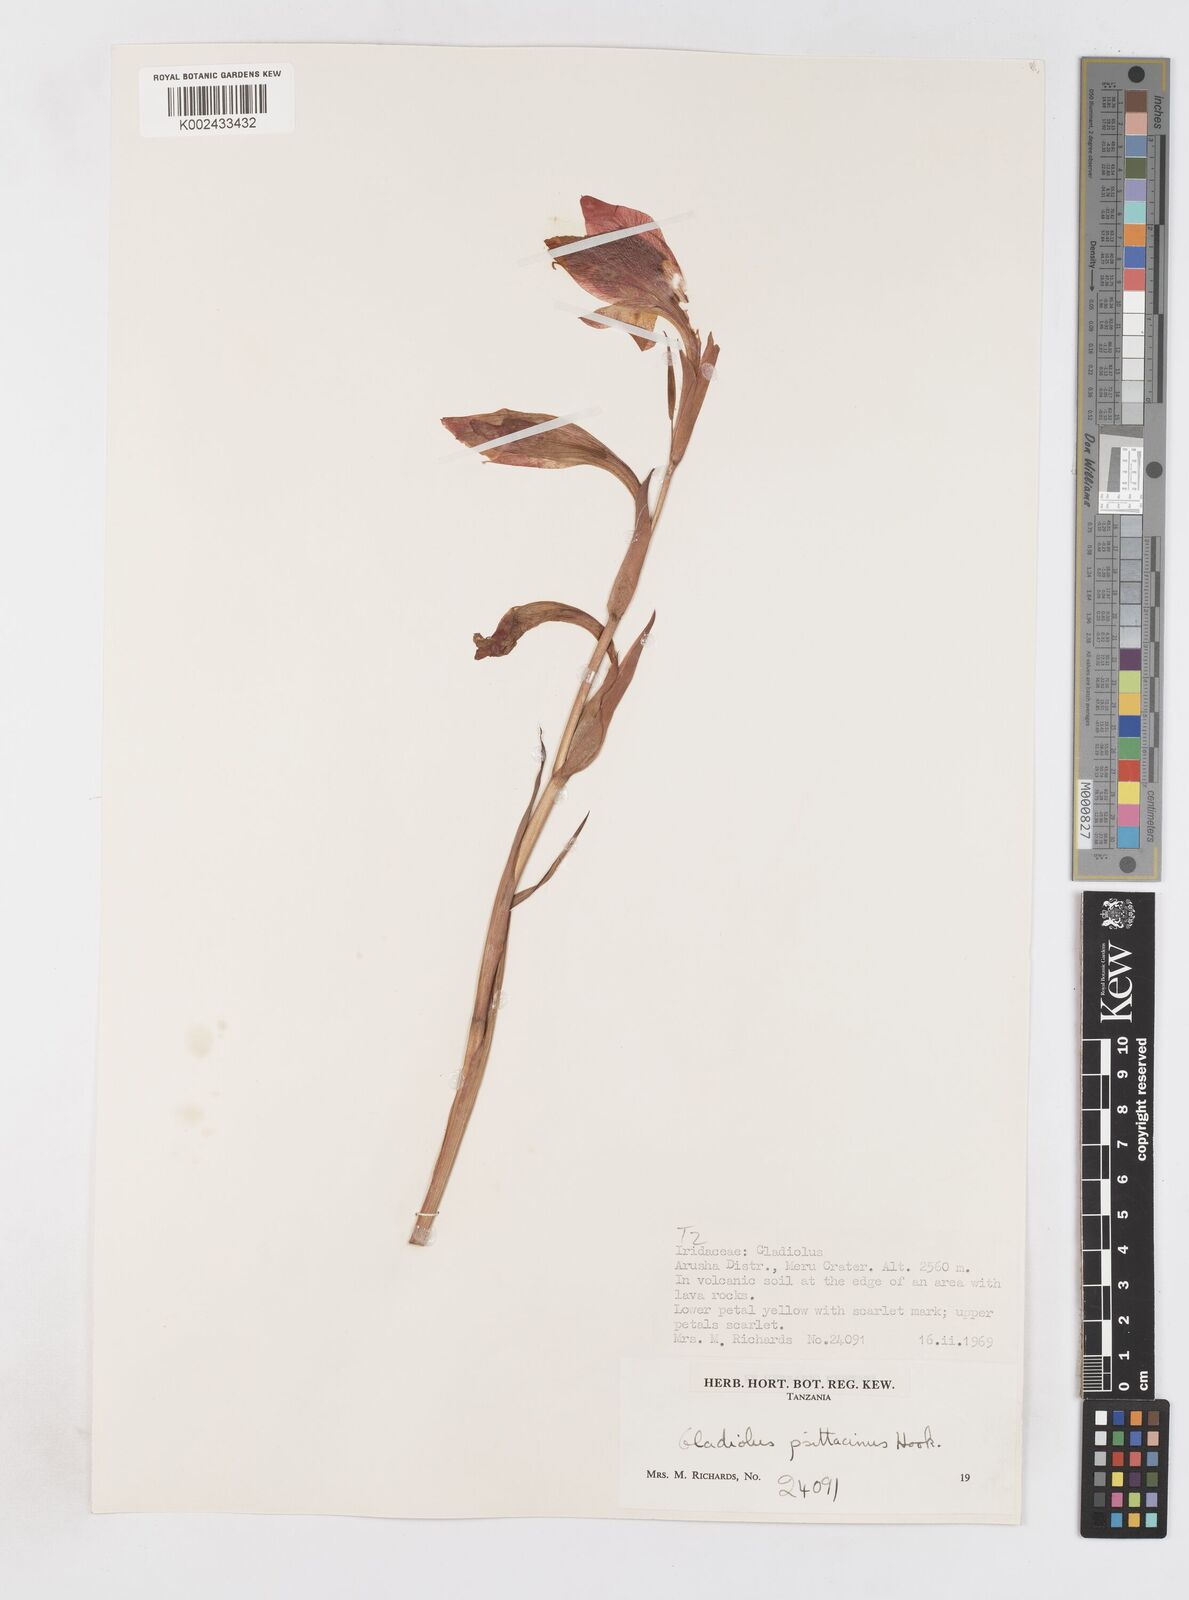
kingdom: Plantae
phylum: Tracheophyta
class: Liliopsida
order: Asparagales
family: Iridaceae
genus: Gladiolus
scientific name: Gladiolus dalenii
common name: Cornflag
